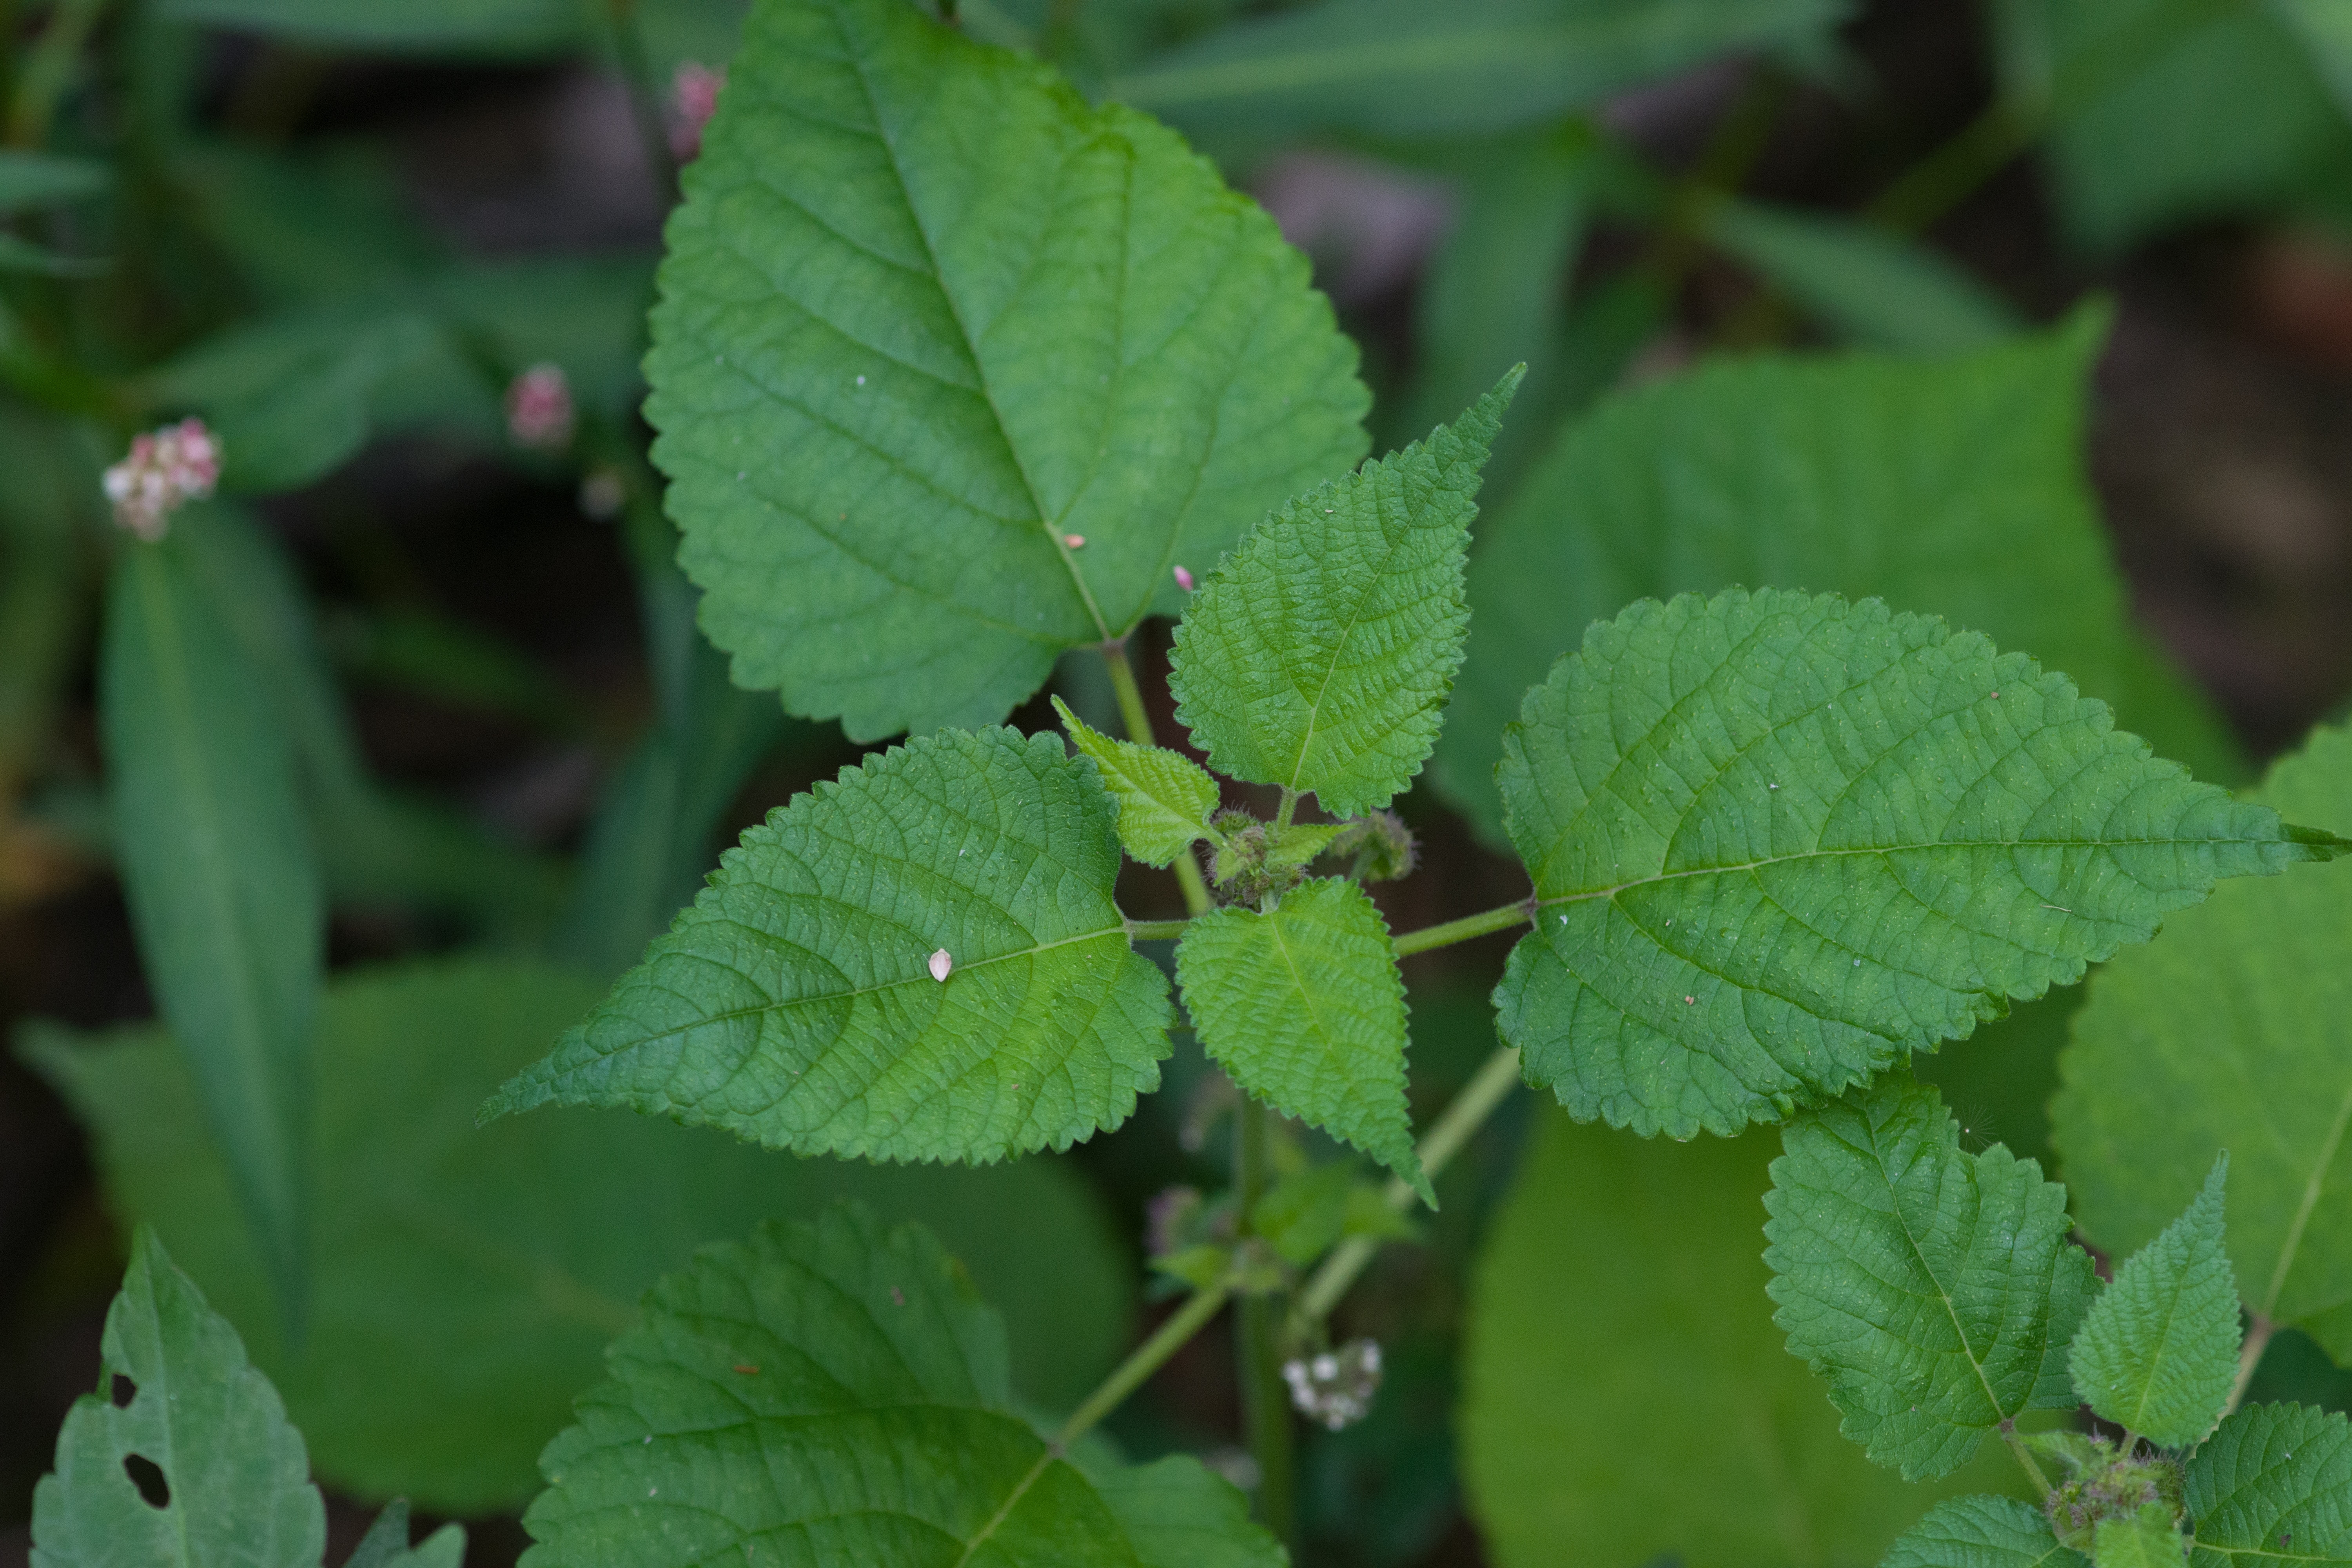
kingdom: Plantae
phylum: Tracheophyta
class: Magnoliopsida
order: Rosales
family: Moraceae
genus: Fatoua
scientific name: Fatoua villosa
